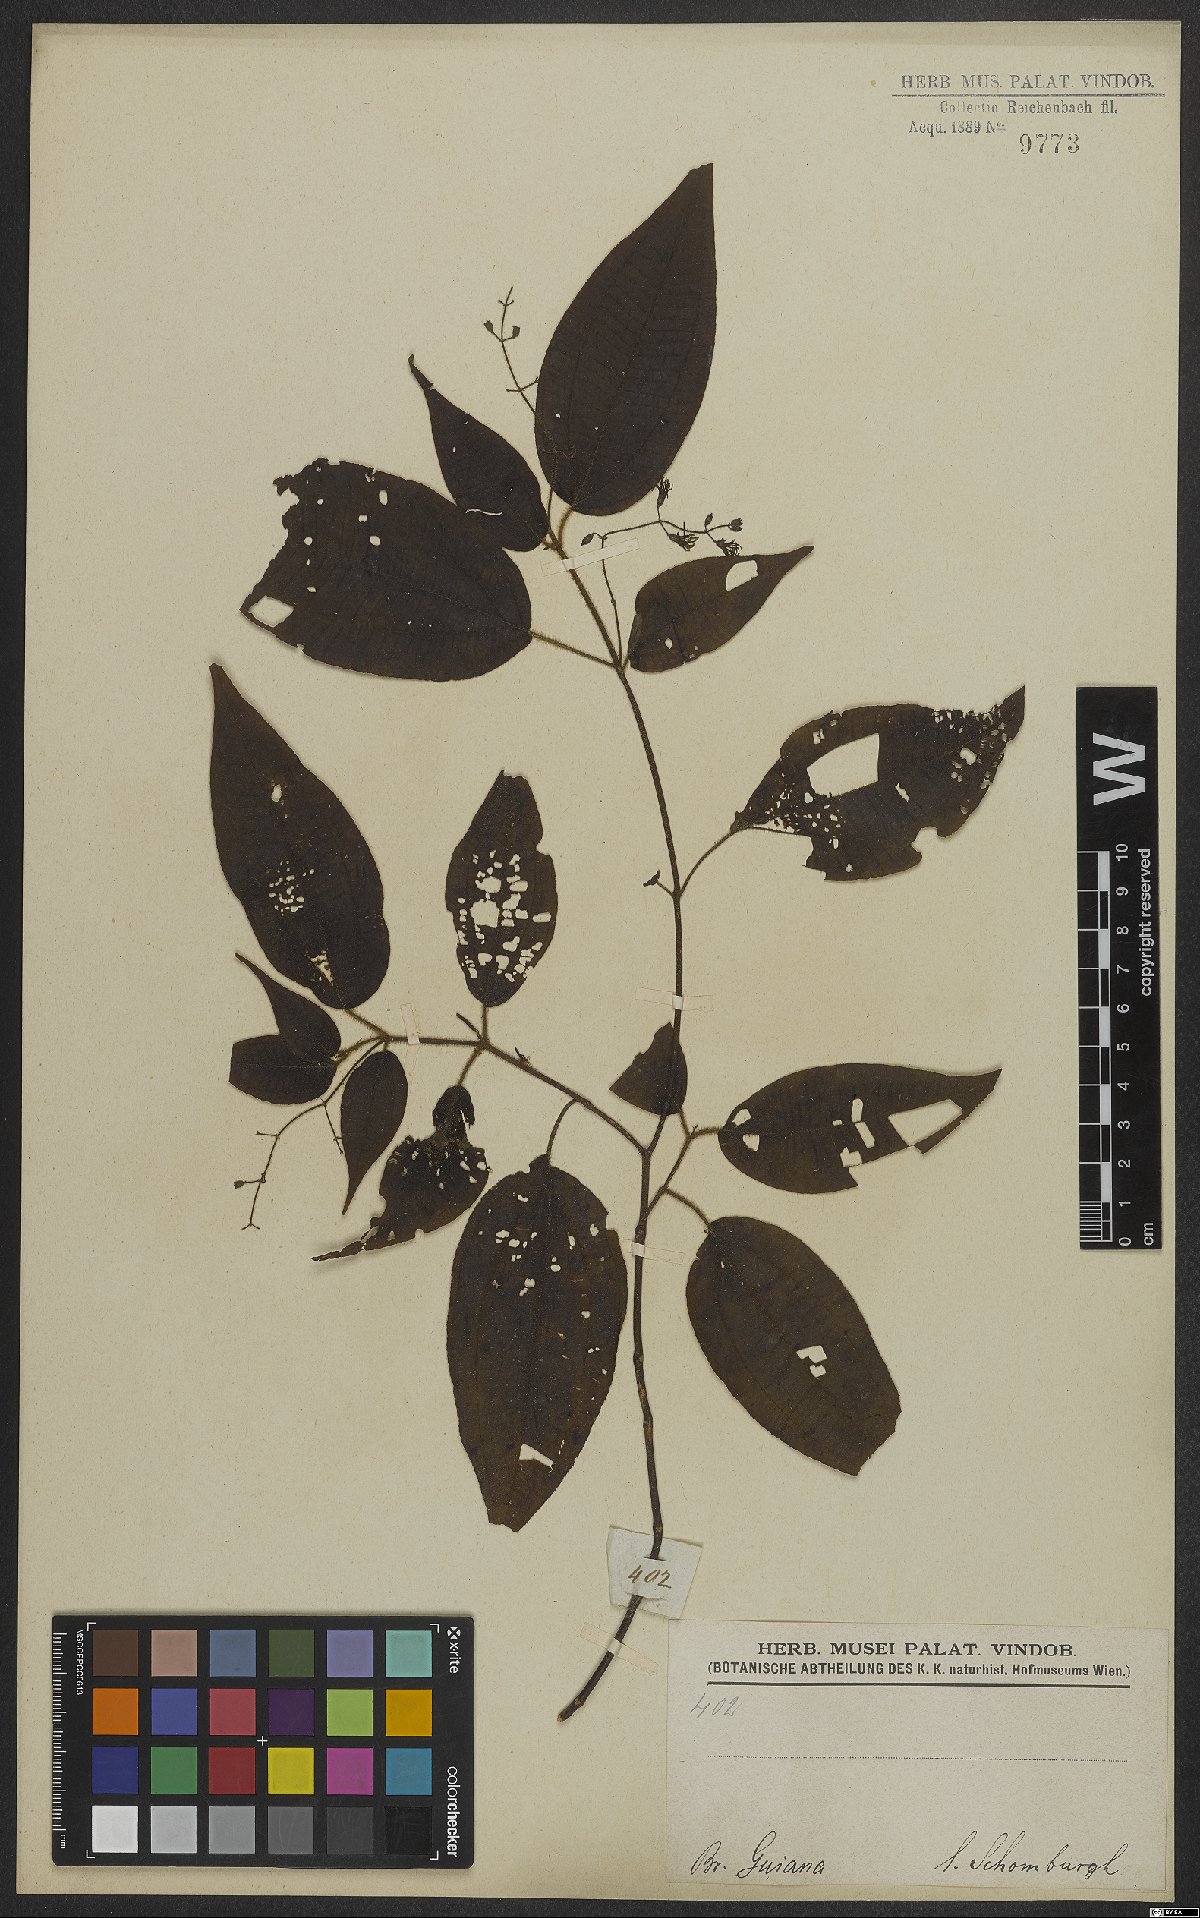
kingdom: Plantae
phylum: Tracheophyta
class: Magnoliopsida
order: Myrtales
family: Melastomataceae
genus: Miconia
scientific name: Miconia
